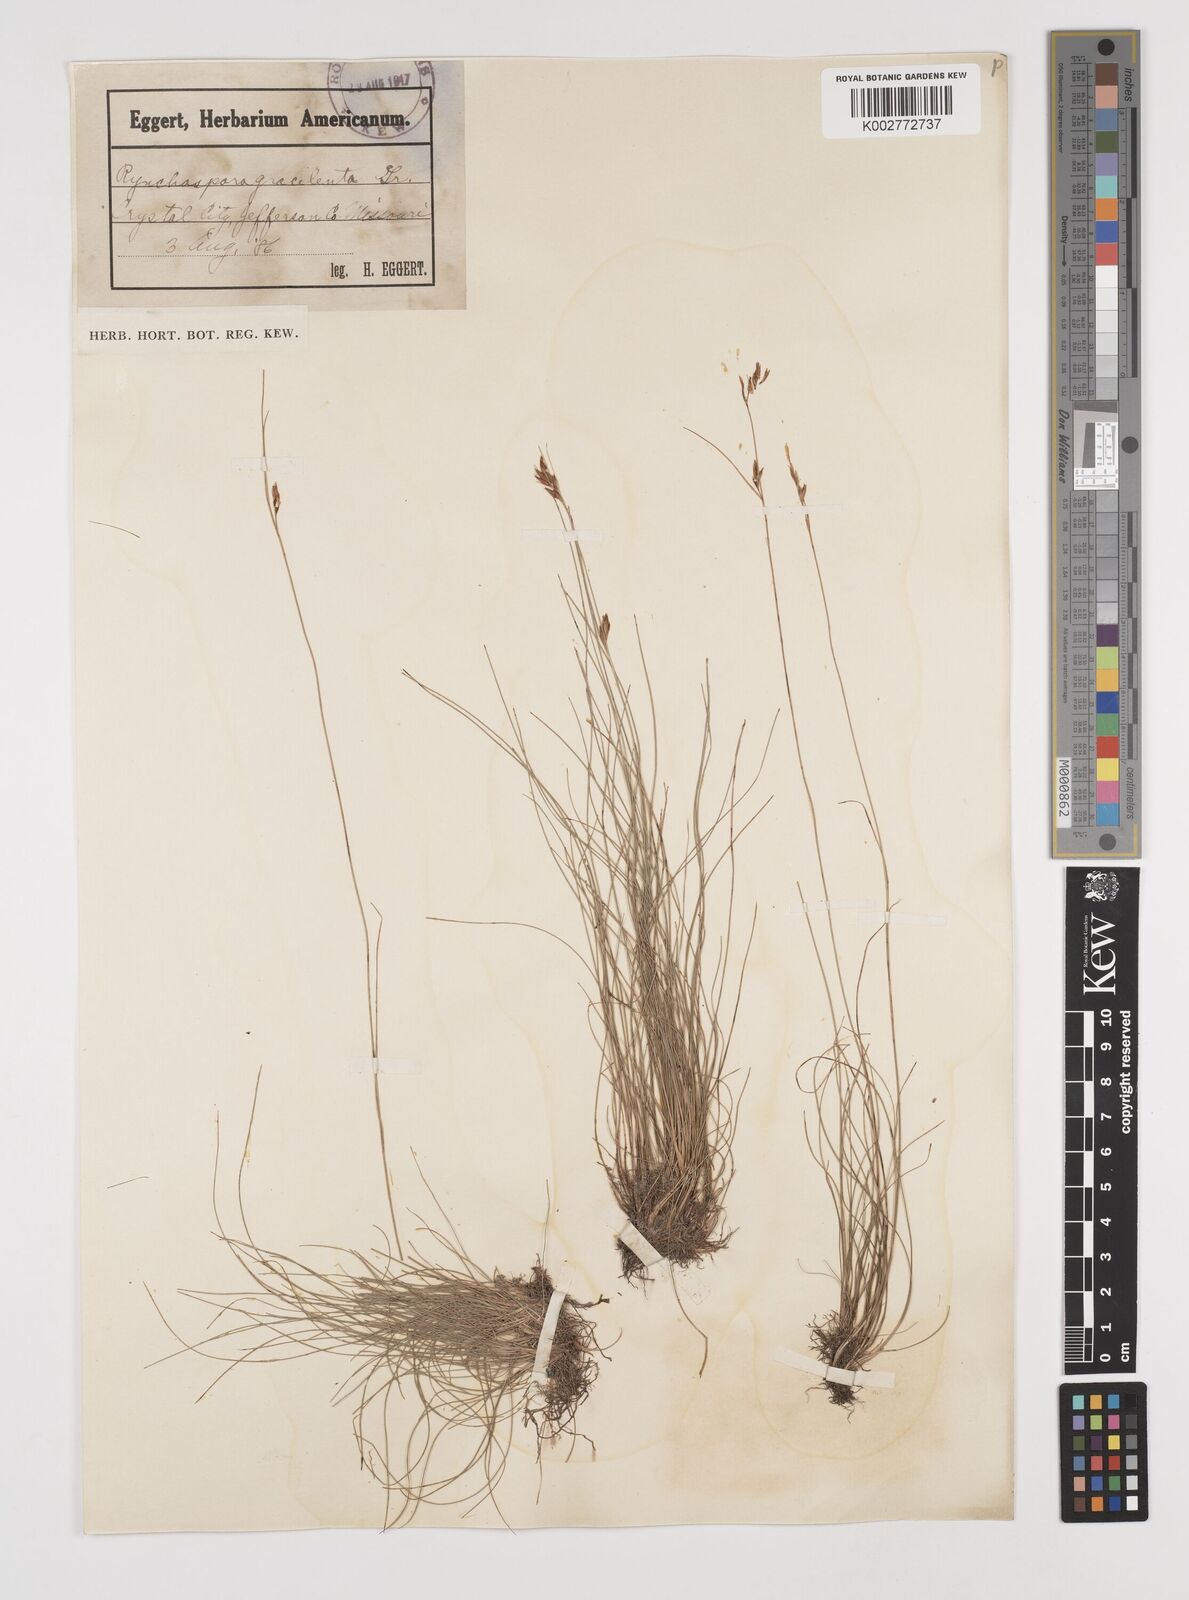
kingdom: Plantae
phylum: Tracheophyta
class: Liliopsida
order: Poales
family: Cyperaceae
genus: Rhynchospora
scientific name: Rhynchospora gracilenta
